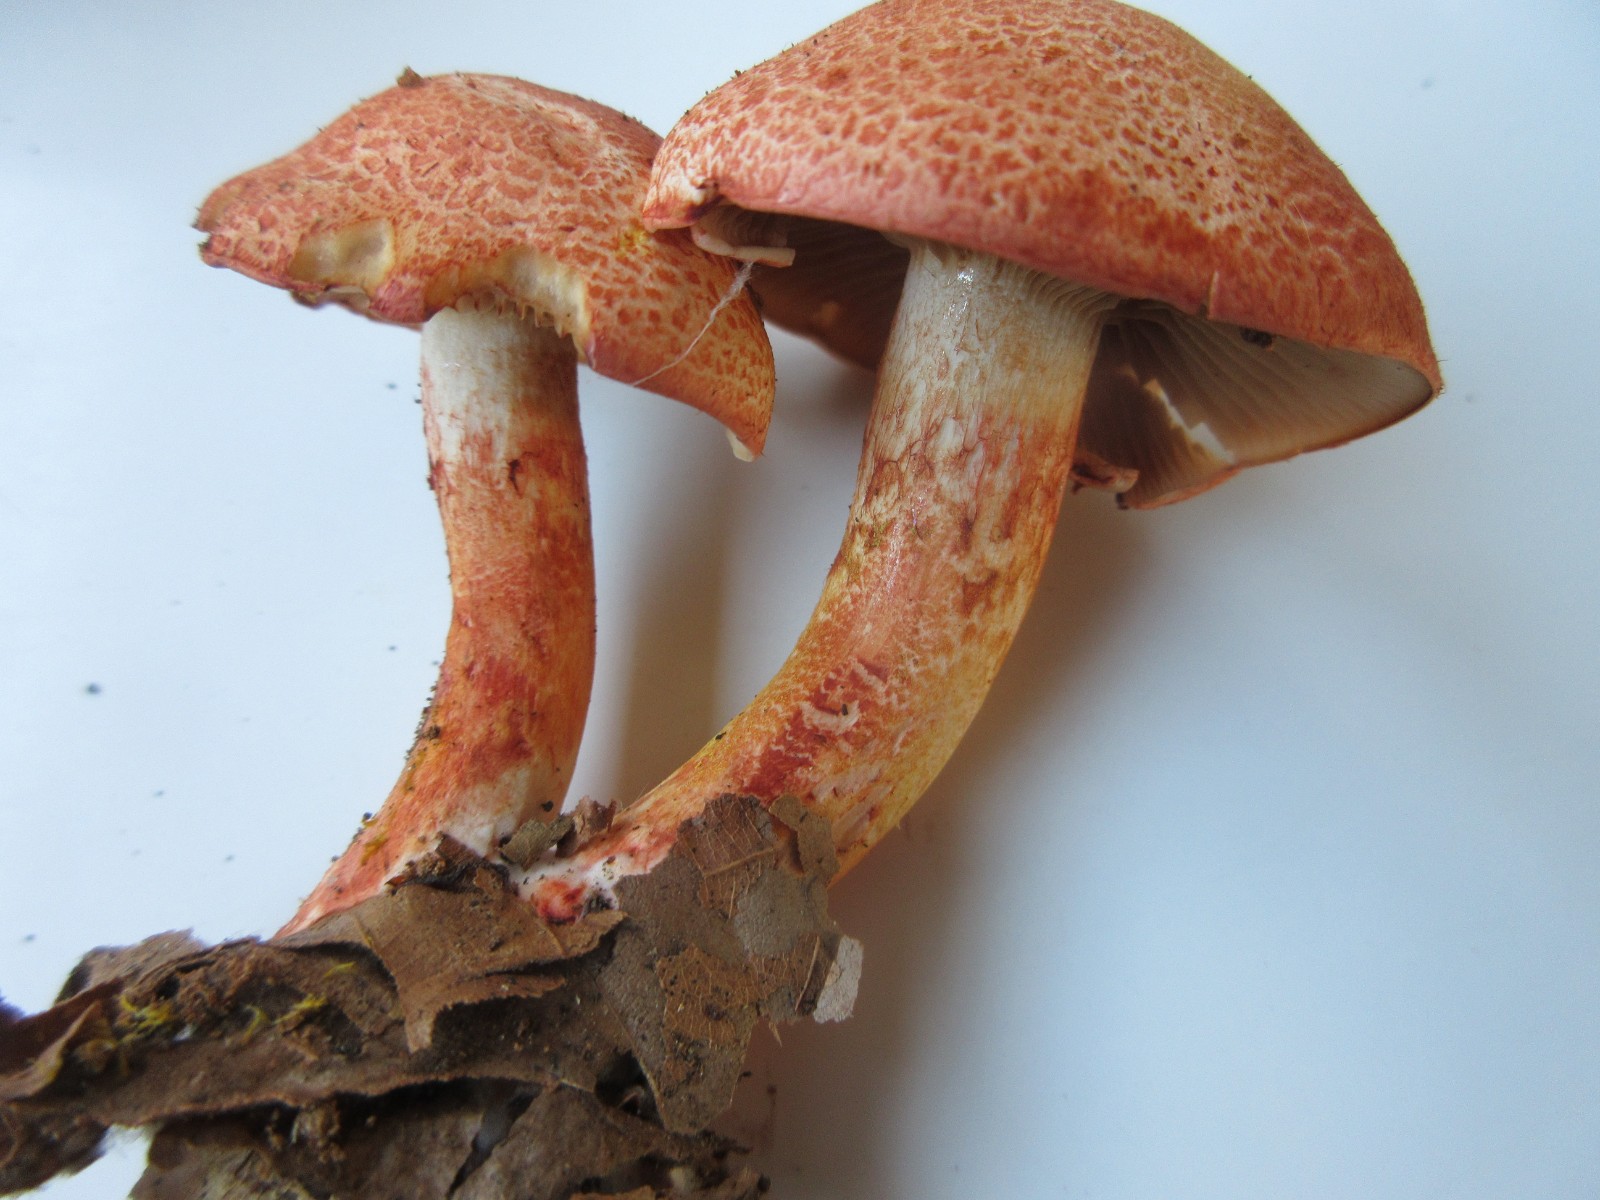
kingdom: Fungi
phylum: Basidiomycota
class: Agaricomycetes
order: Agaricales
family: Cortinariaceae
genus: Cortinarius
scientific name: Cortinarius bolaris
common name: cinnoberskællet slørhat
